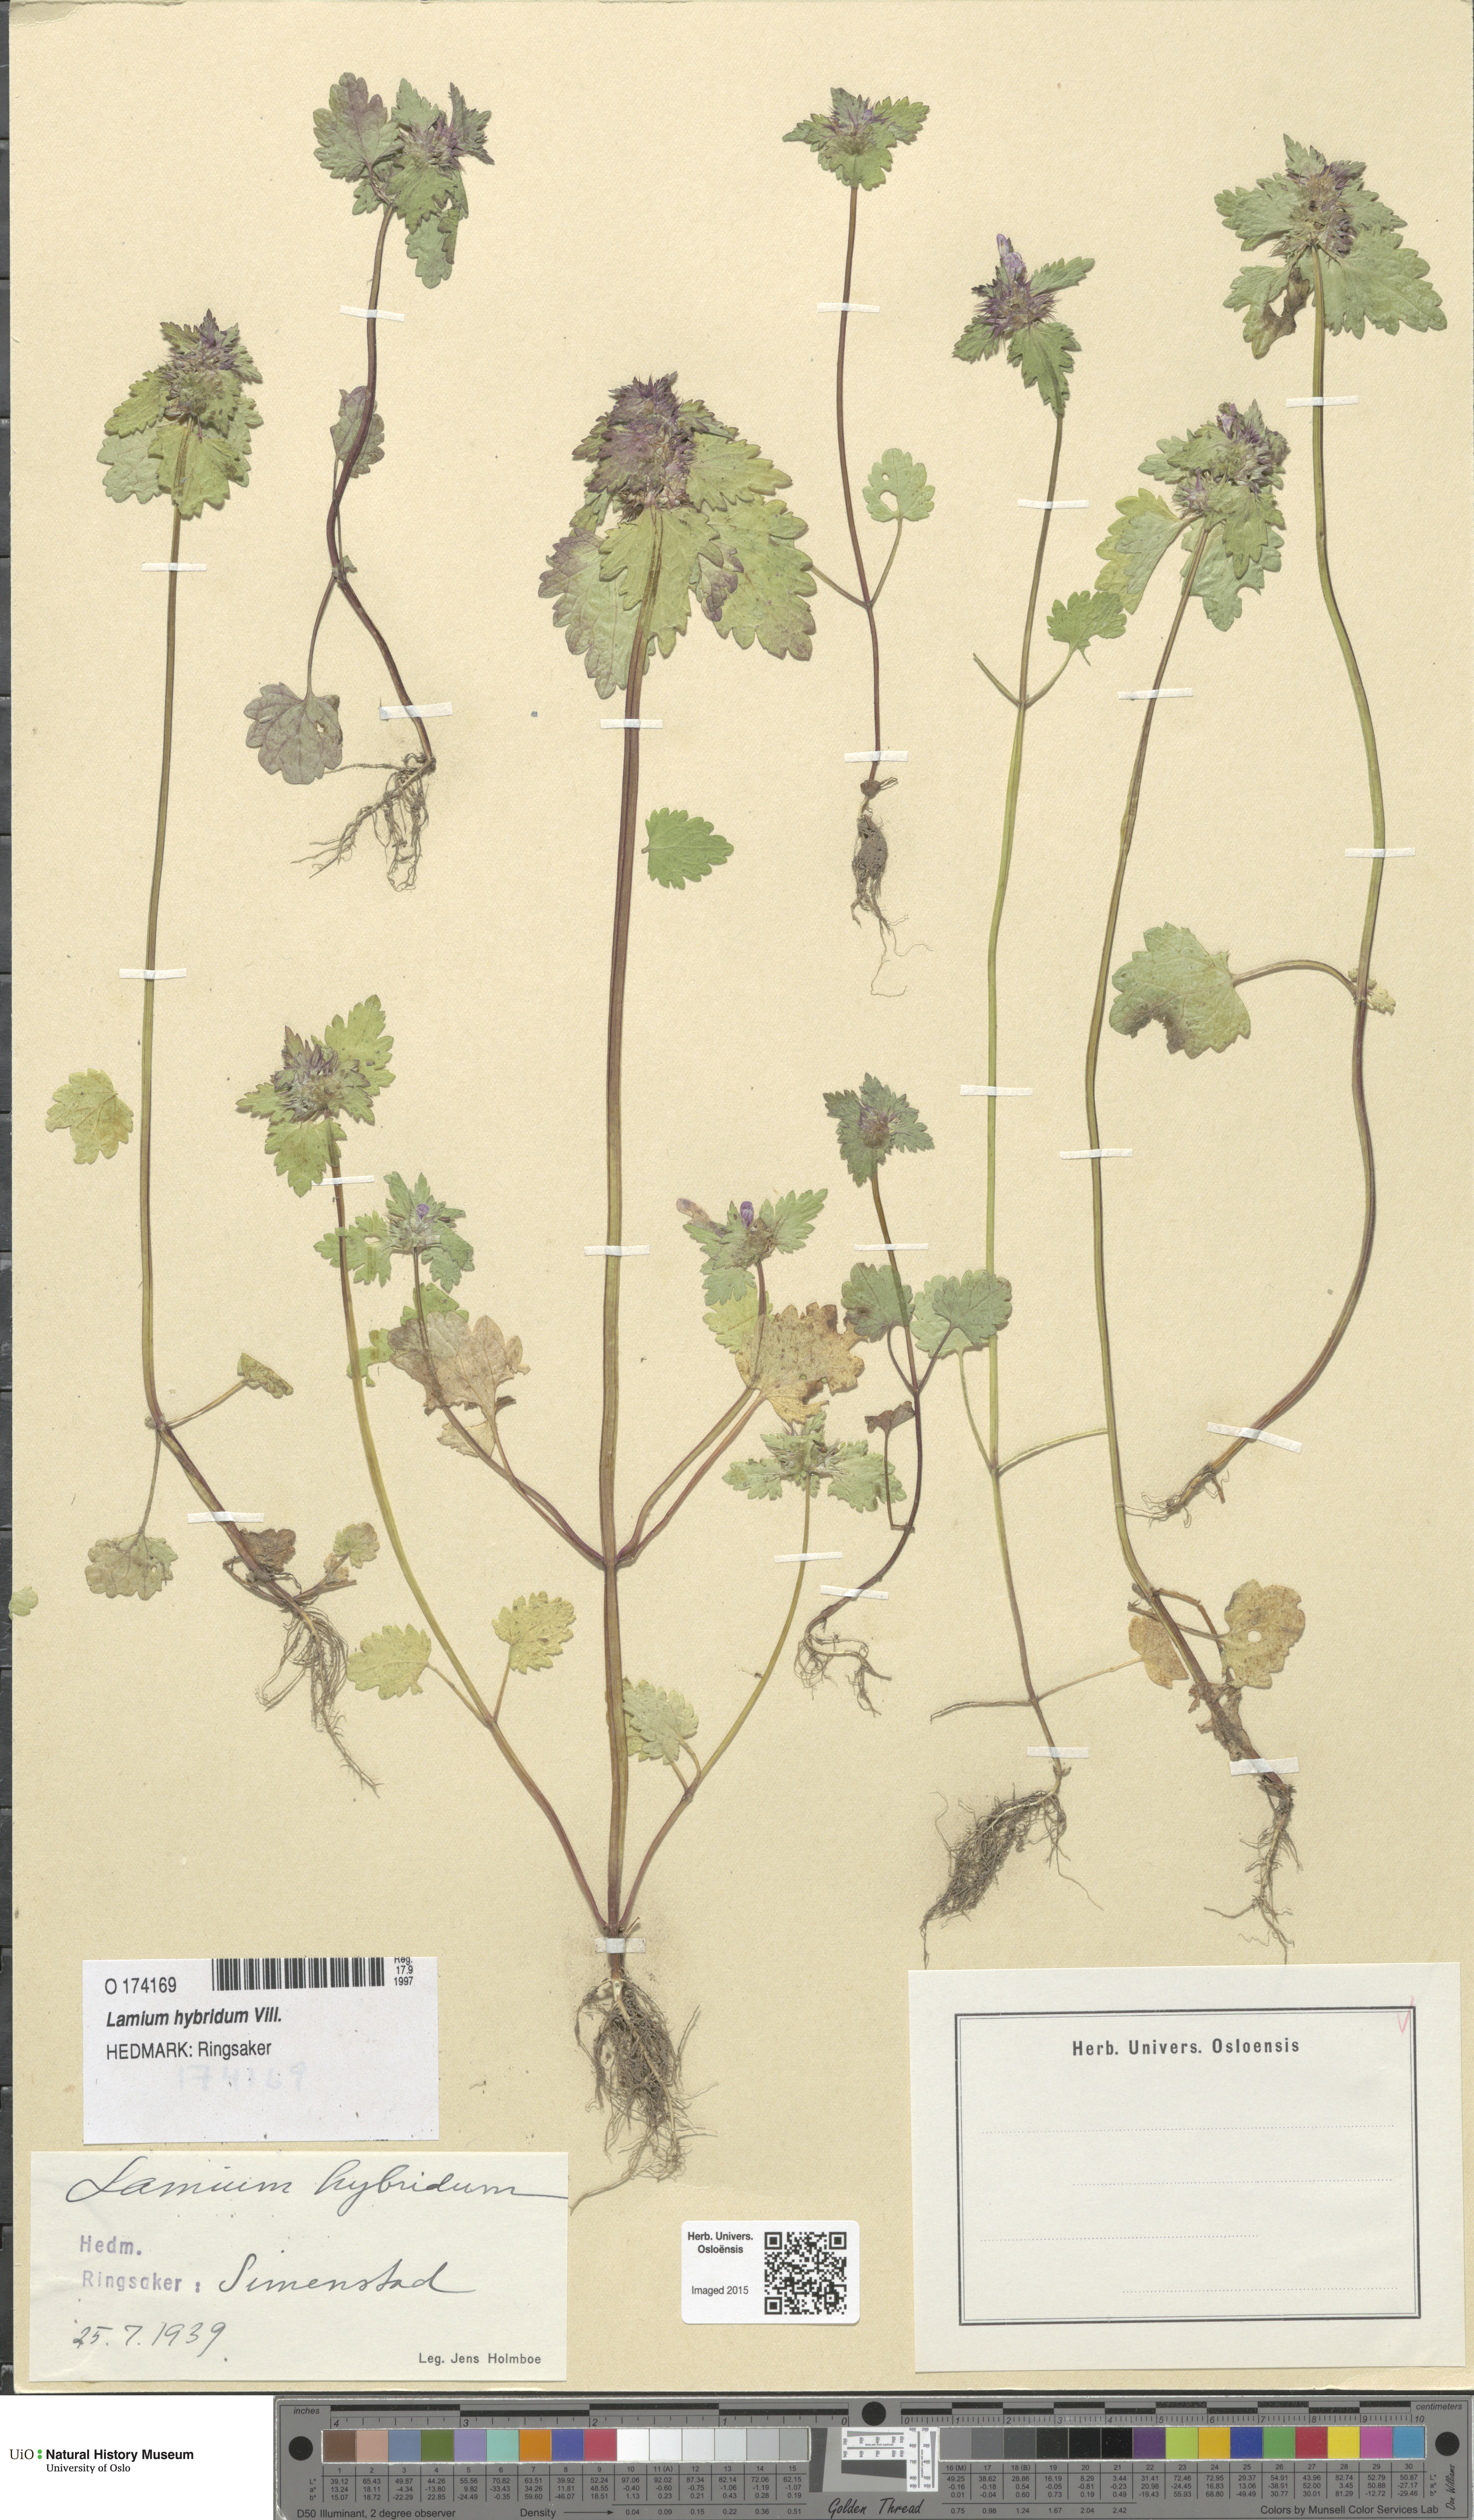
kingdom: Plantae
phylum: Tracheophyta
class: Magnoliopsida
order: Lamiales
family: Lamiaceae
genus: Lamium
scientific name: Lamium hybridum
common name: Cut-leaved dead-nettle
